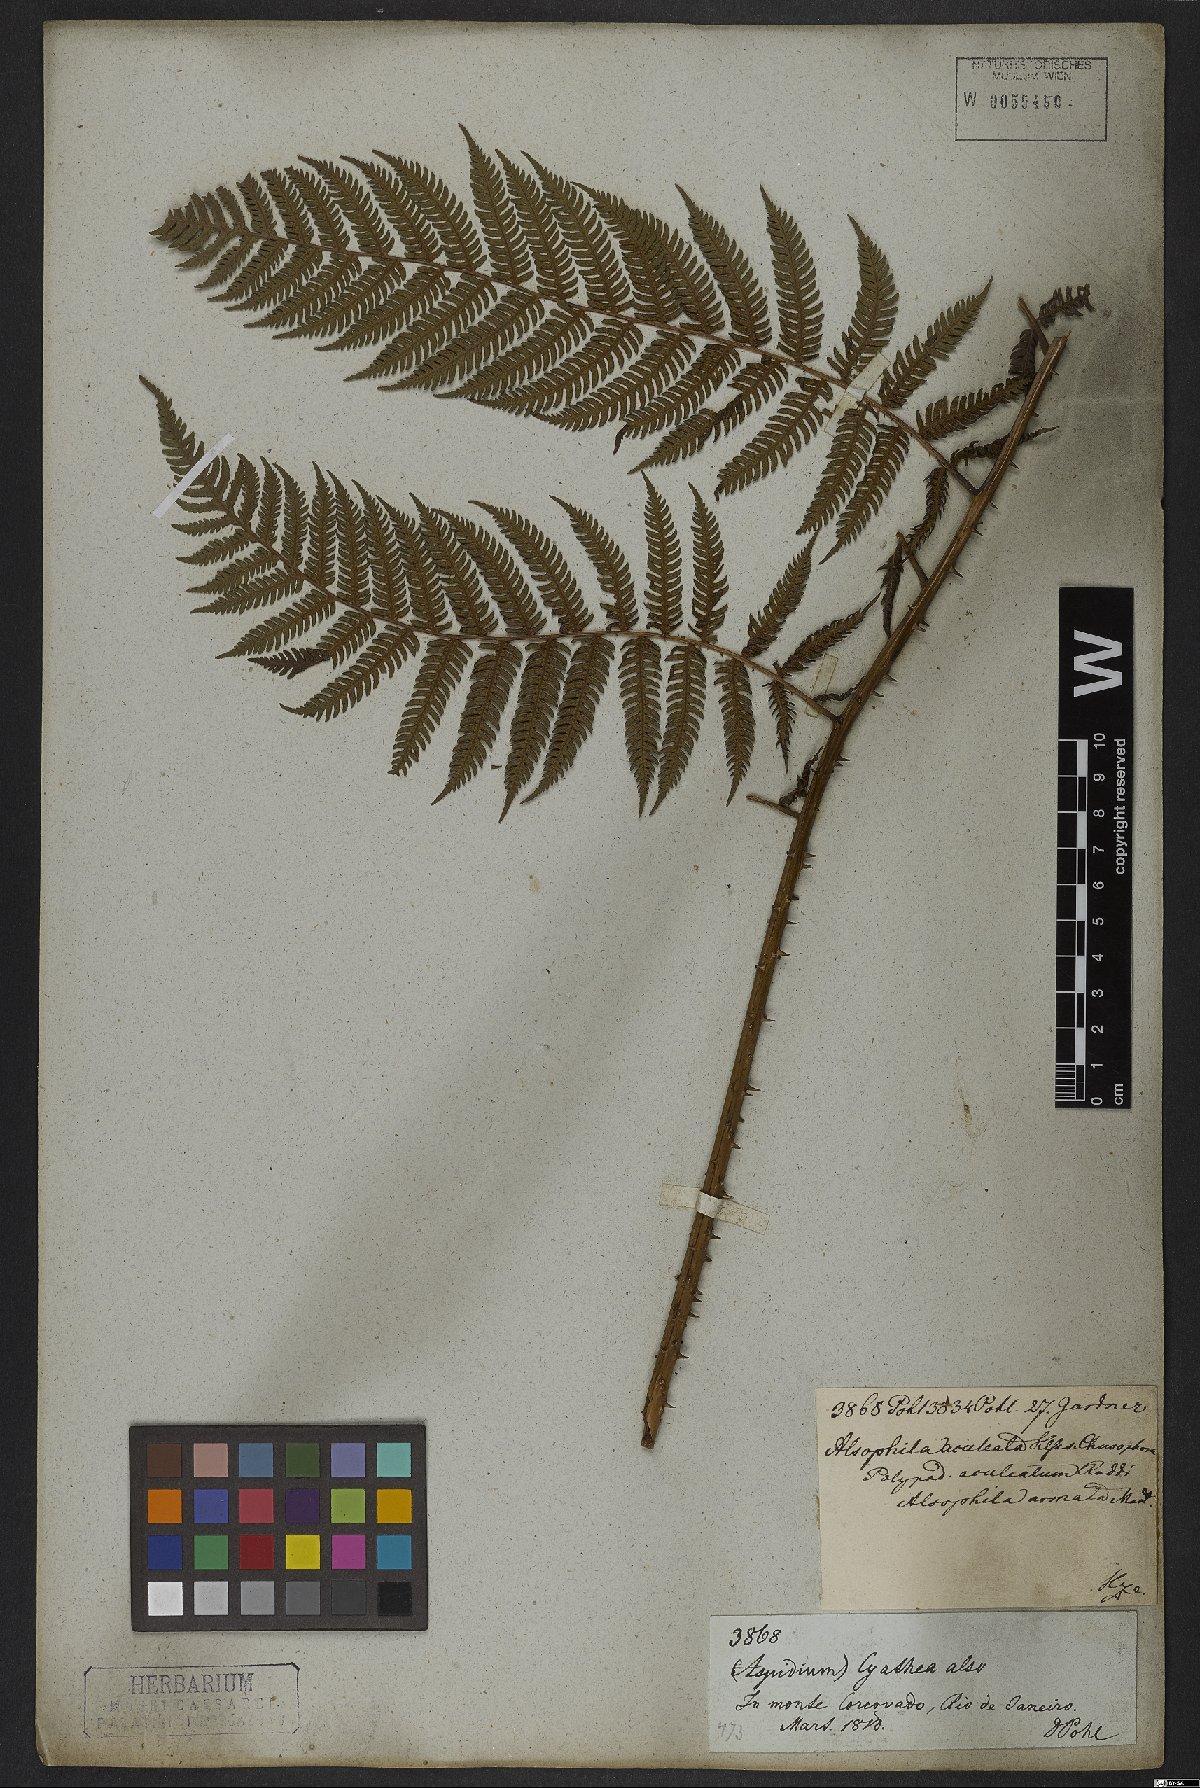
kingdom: Plantae
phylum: Tracheophyta
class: Polypodiopsida
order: Cyatheales
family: Cyatheaceae
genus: Cyathea
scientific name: Cyathea microdonta
